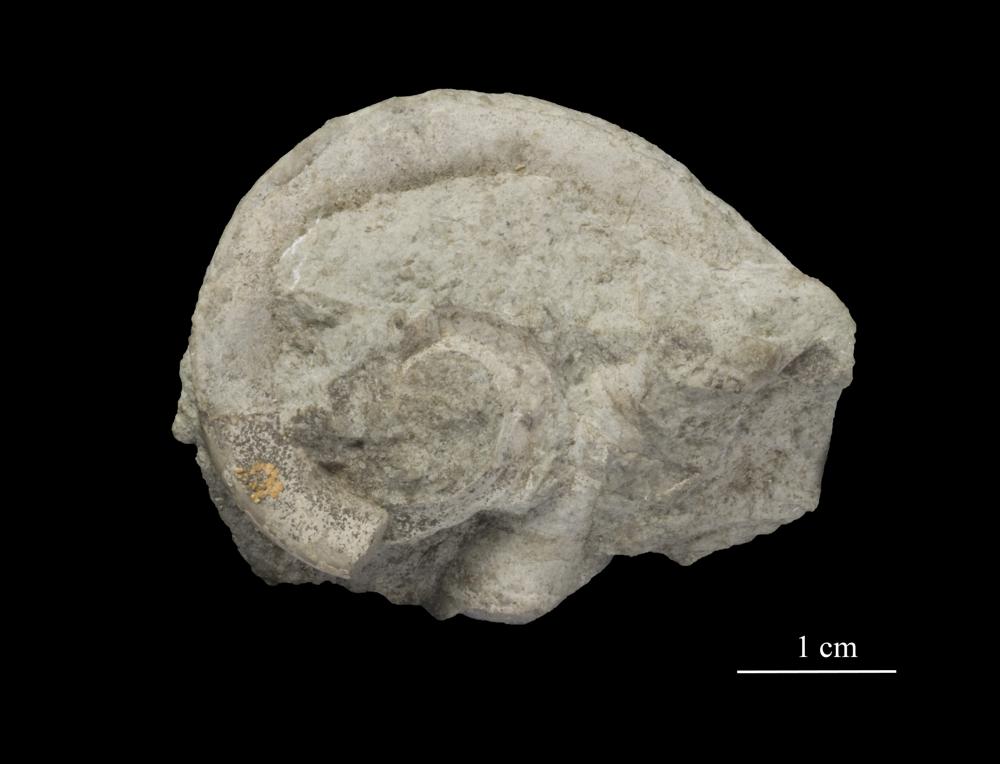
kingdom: Animalia
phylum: Mollusca
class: Gastropoda
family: Lesueurillidae
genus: Eccyliopterus
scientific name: Eccyliopterus regularis
